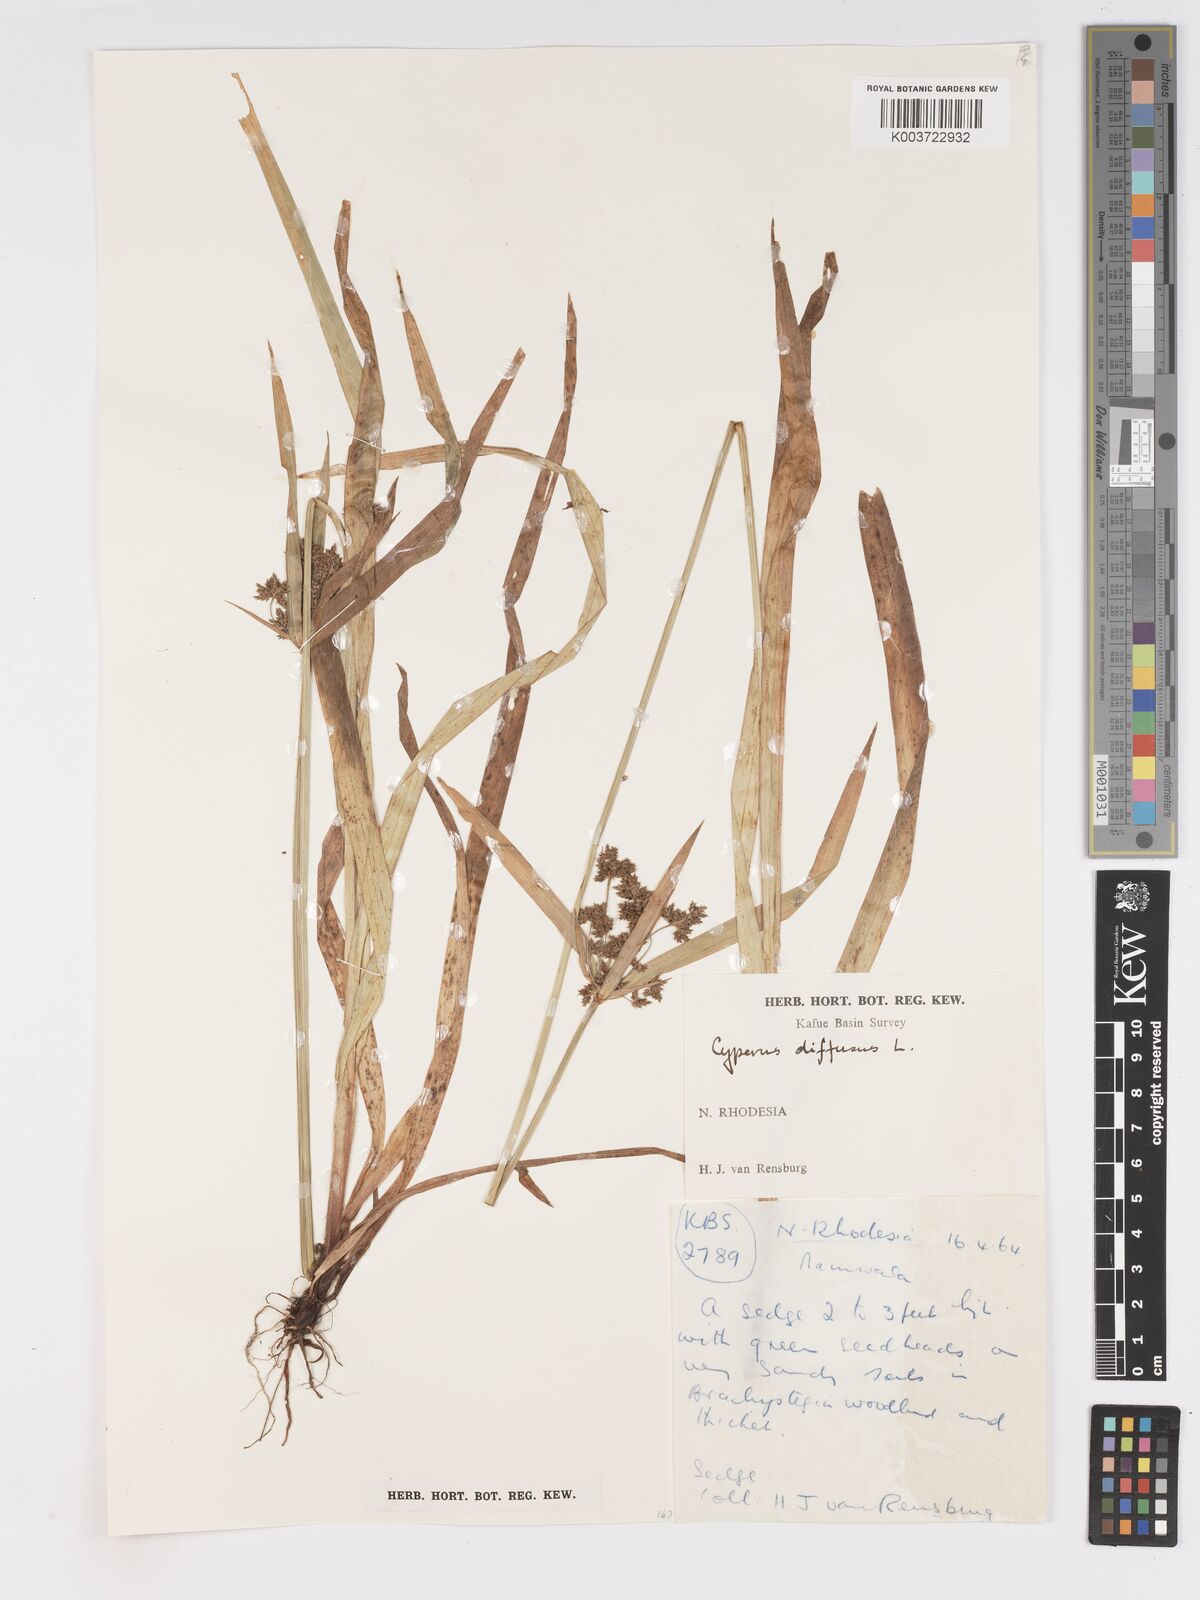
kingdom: Plantae
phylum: Tracheophyta
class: Liliopsida
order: Poales
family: Cyperaceae
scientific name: Cyperaceae
